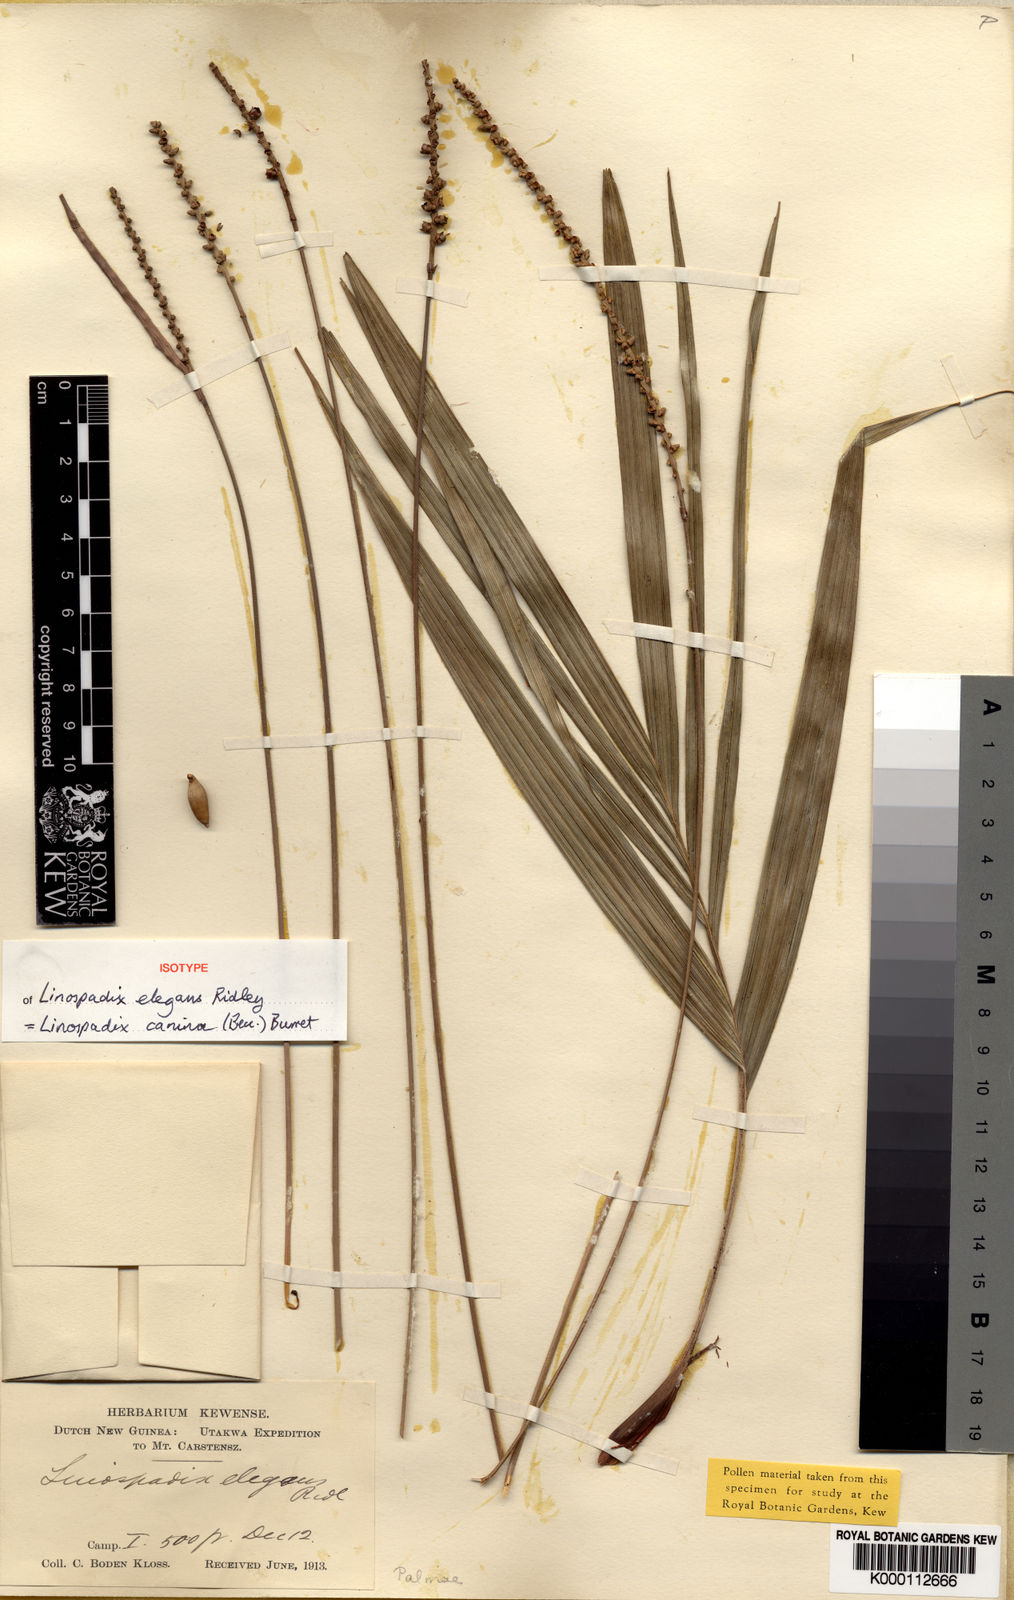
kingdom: Plantae
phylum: Tracheophyta
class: Liliopsida
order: Arecales
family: Arecaceae
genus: Linospadix
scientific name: Linospadix caninus
